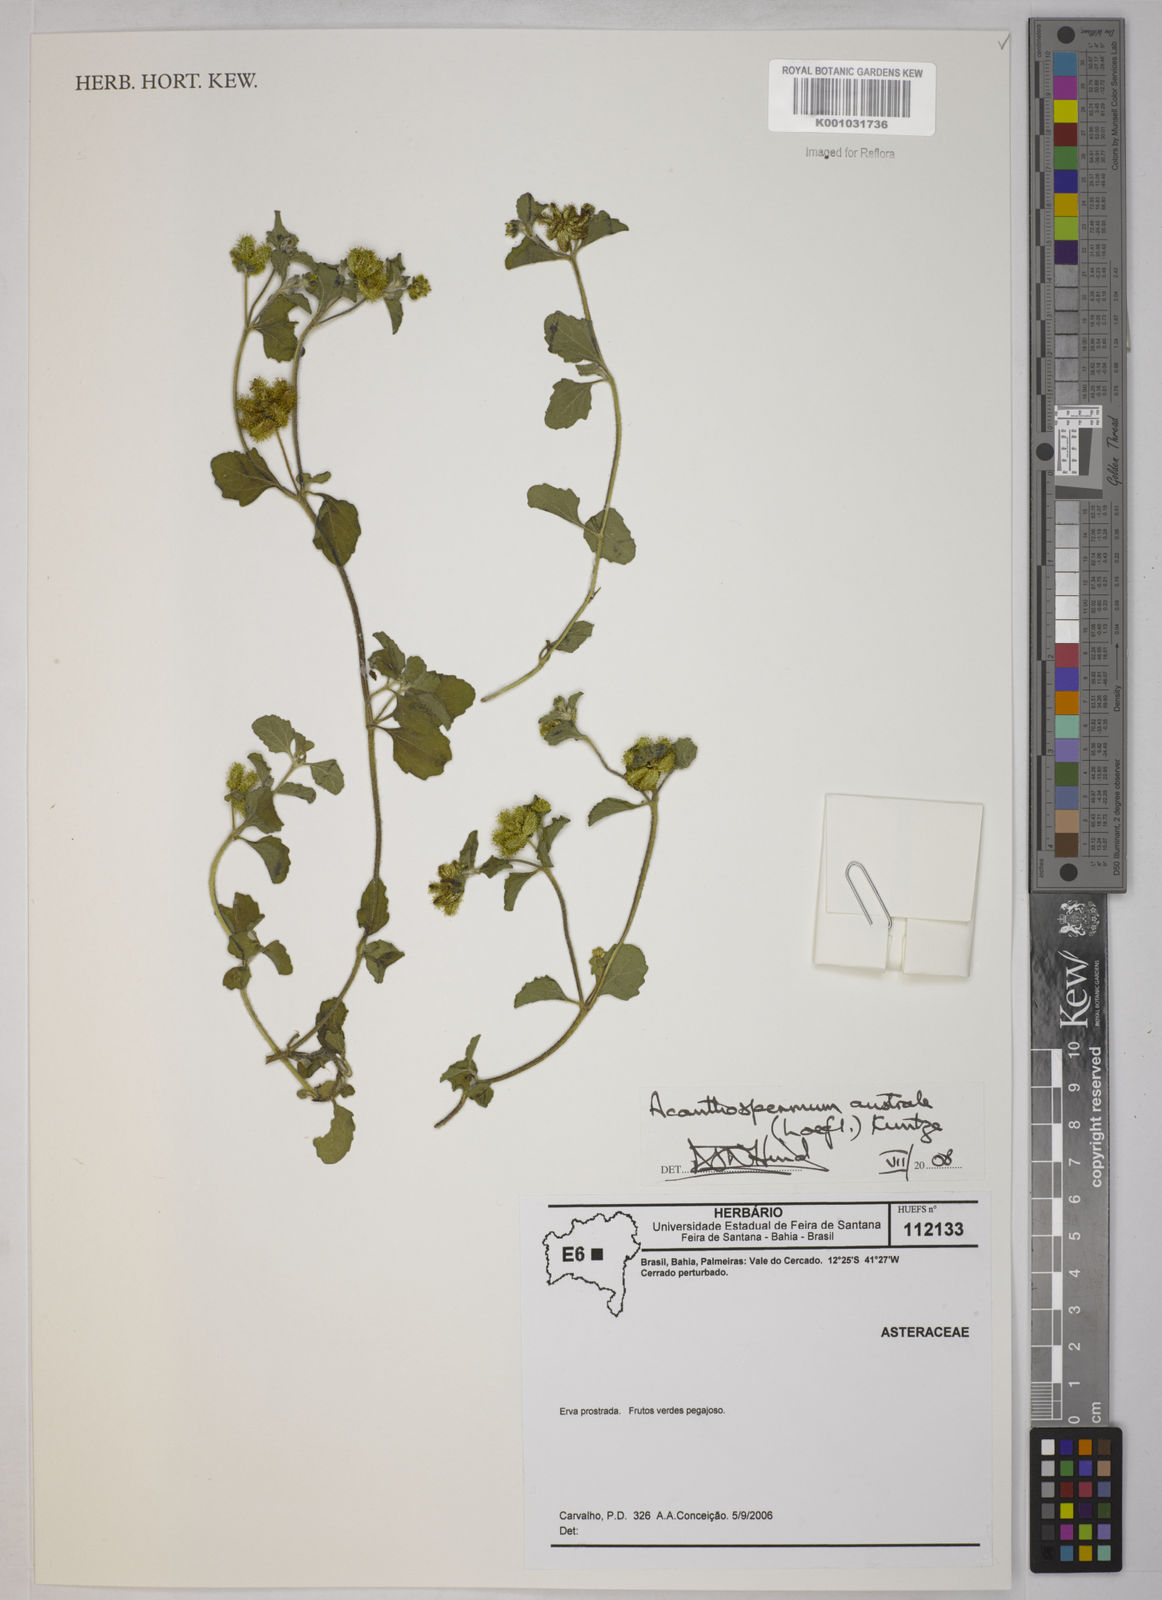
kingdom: Plantae
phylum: Tracheophyta
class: Magnoliopsida
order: Asterales
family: Asteraceae
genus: Acanthospermum
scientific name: Acanthospermum australe
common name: Paraguayan starbur
